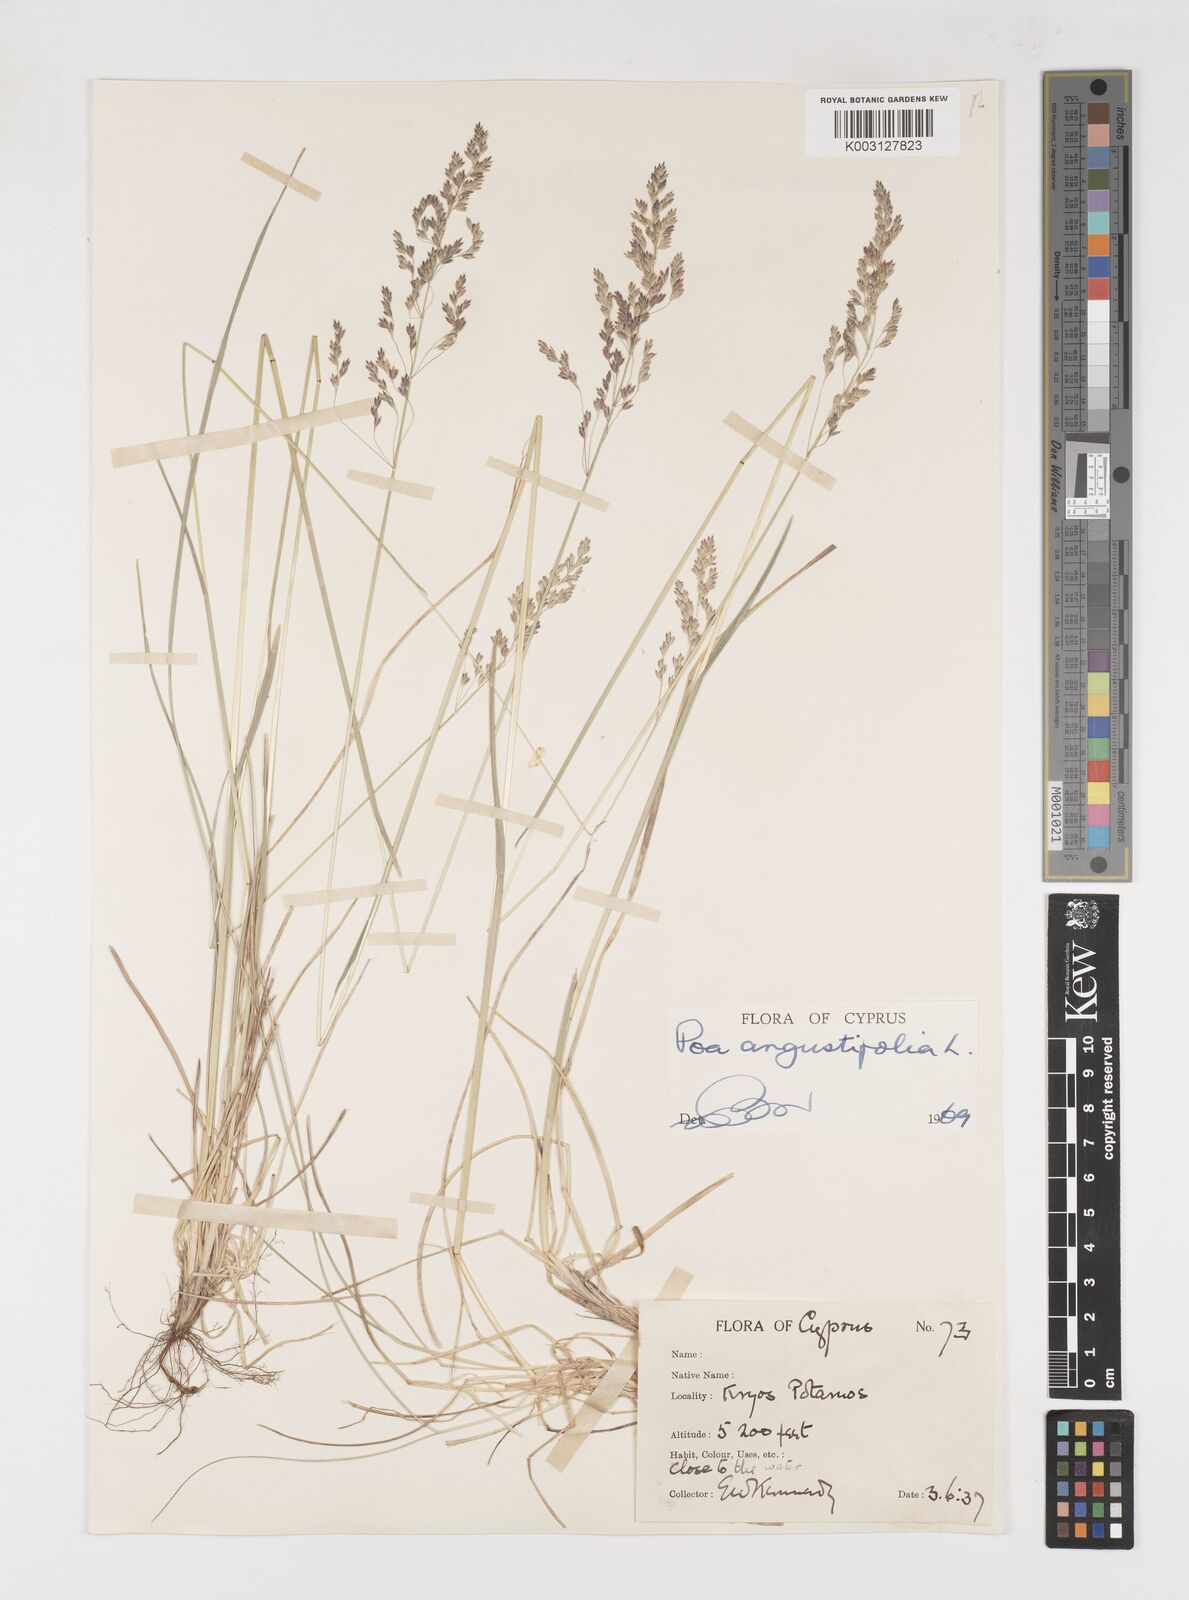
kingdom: Plantae
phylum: Tracheophyta
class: Liliopsida
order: Poales
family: Poaceae
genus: Poa
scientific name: Poa angustifolia
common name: Narrow-leaved meadow-grass
